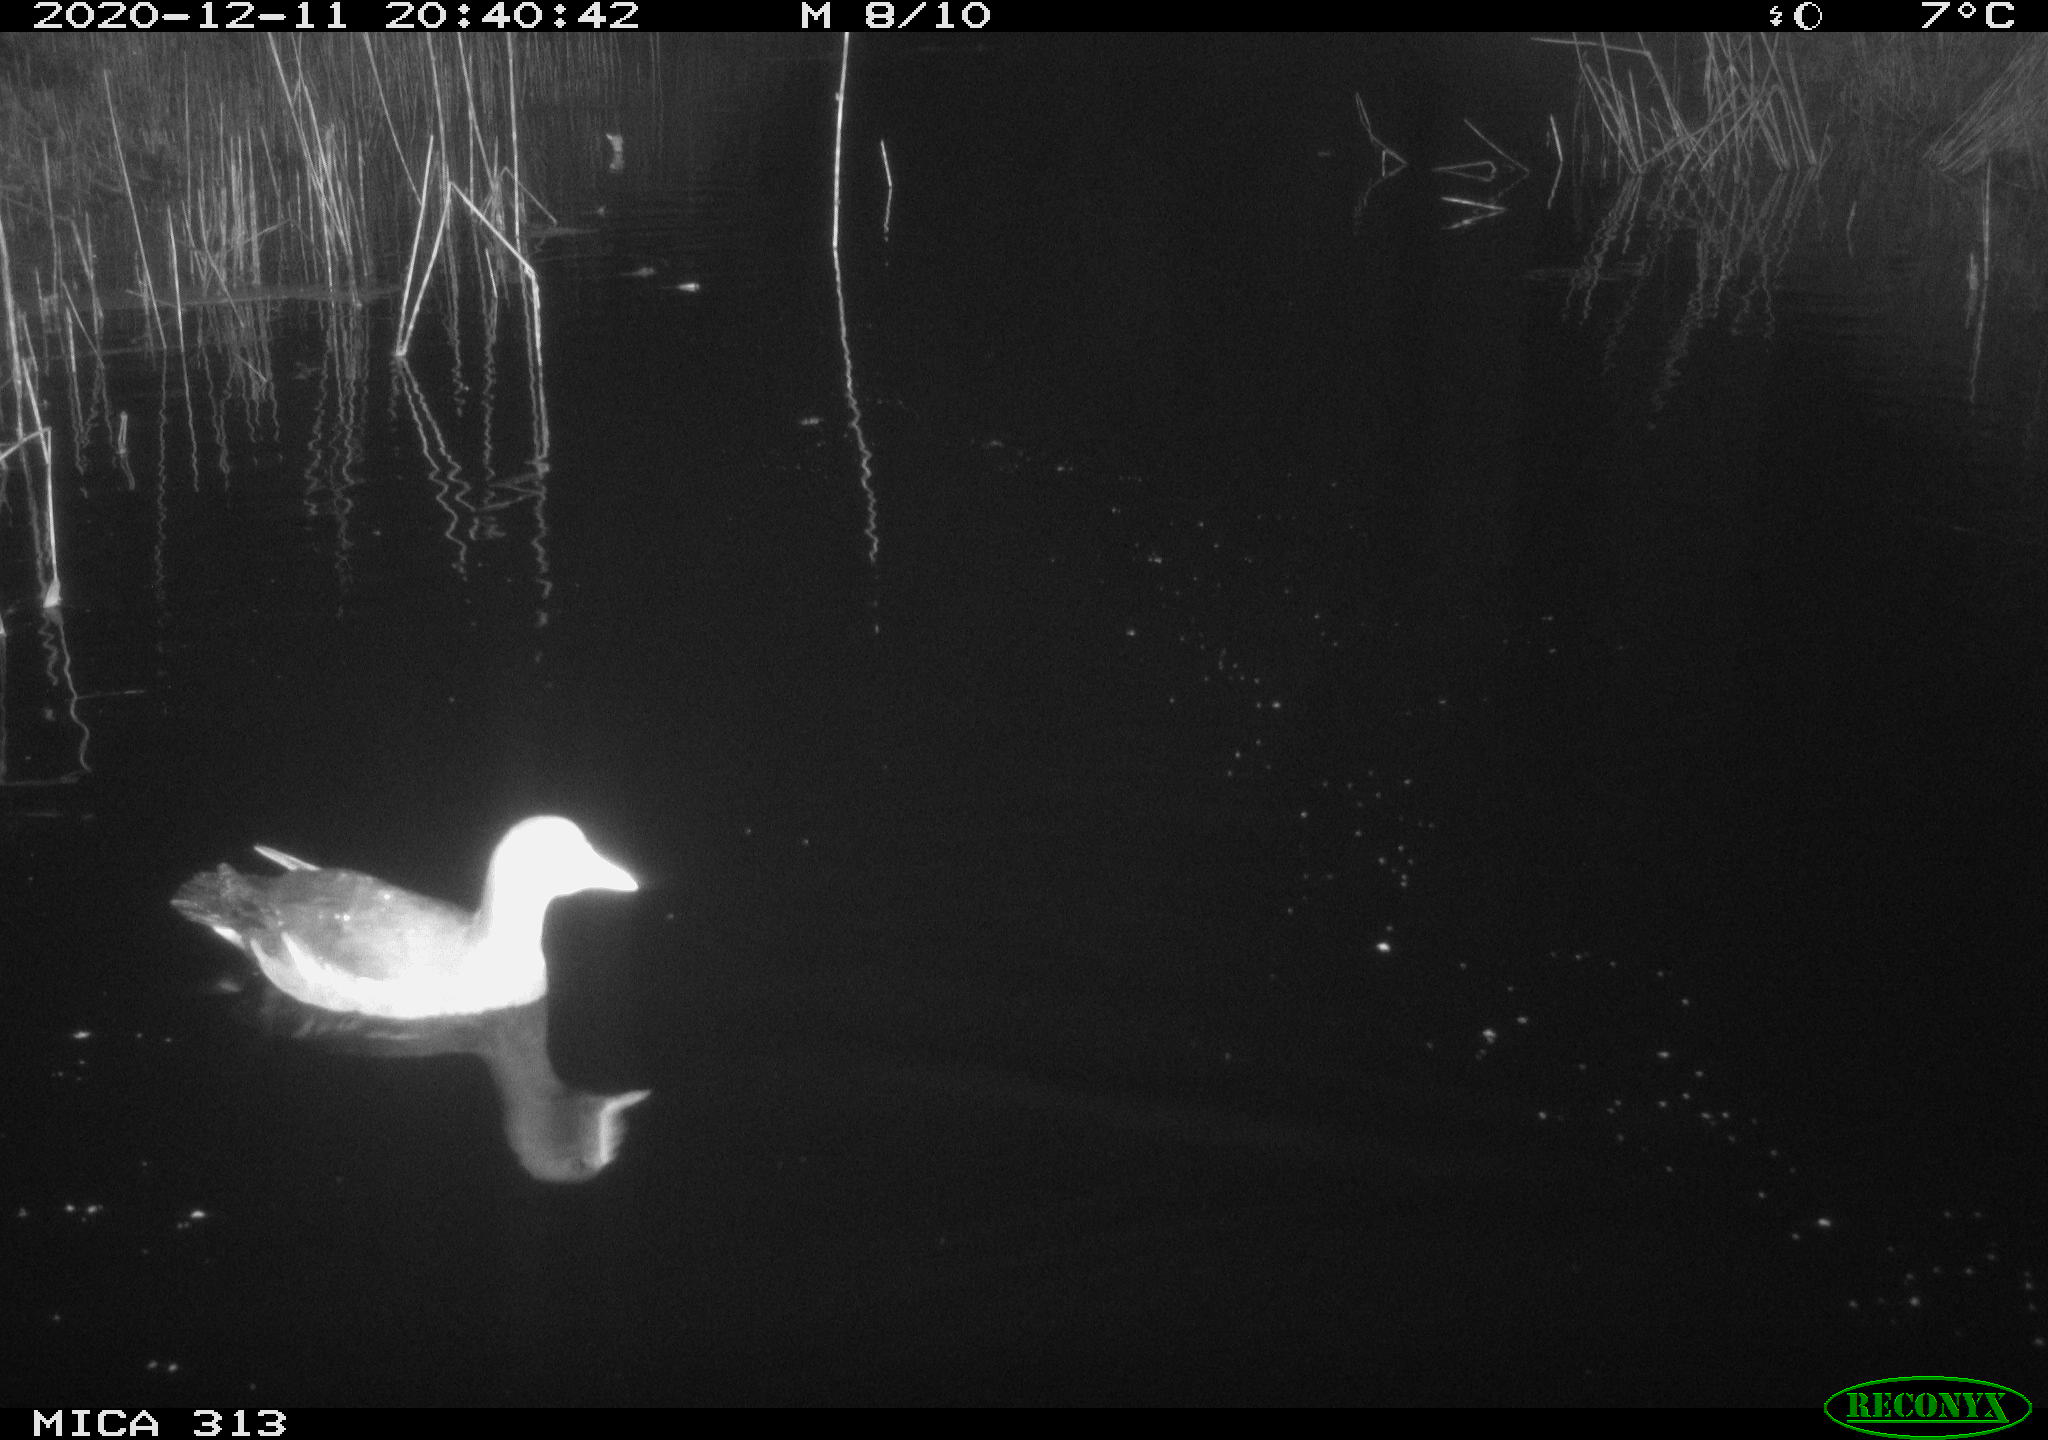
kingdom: Animalia
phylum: Chordata
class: Aves
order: Gruiformes
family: Rallidae
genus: Fulica
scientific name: Fulica atra
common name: Eurasian coot
